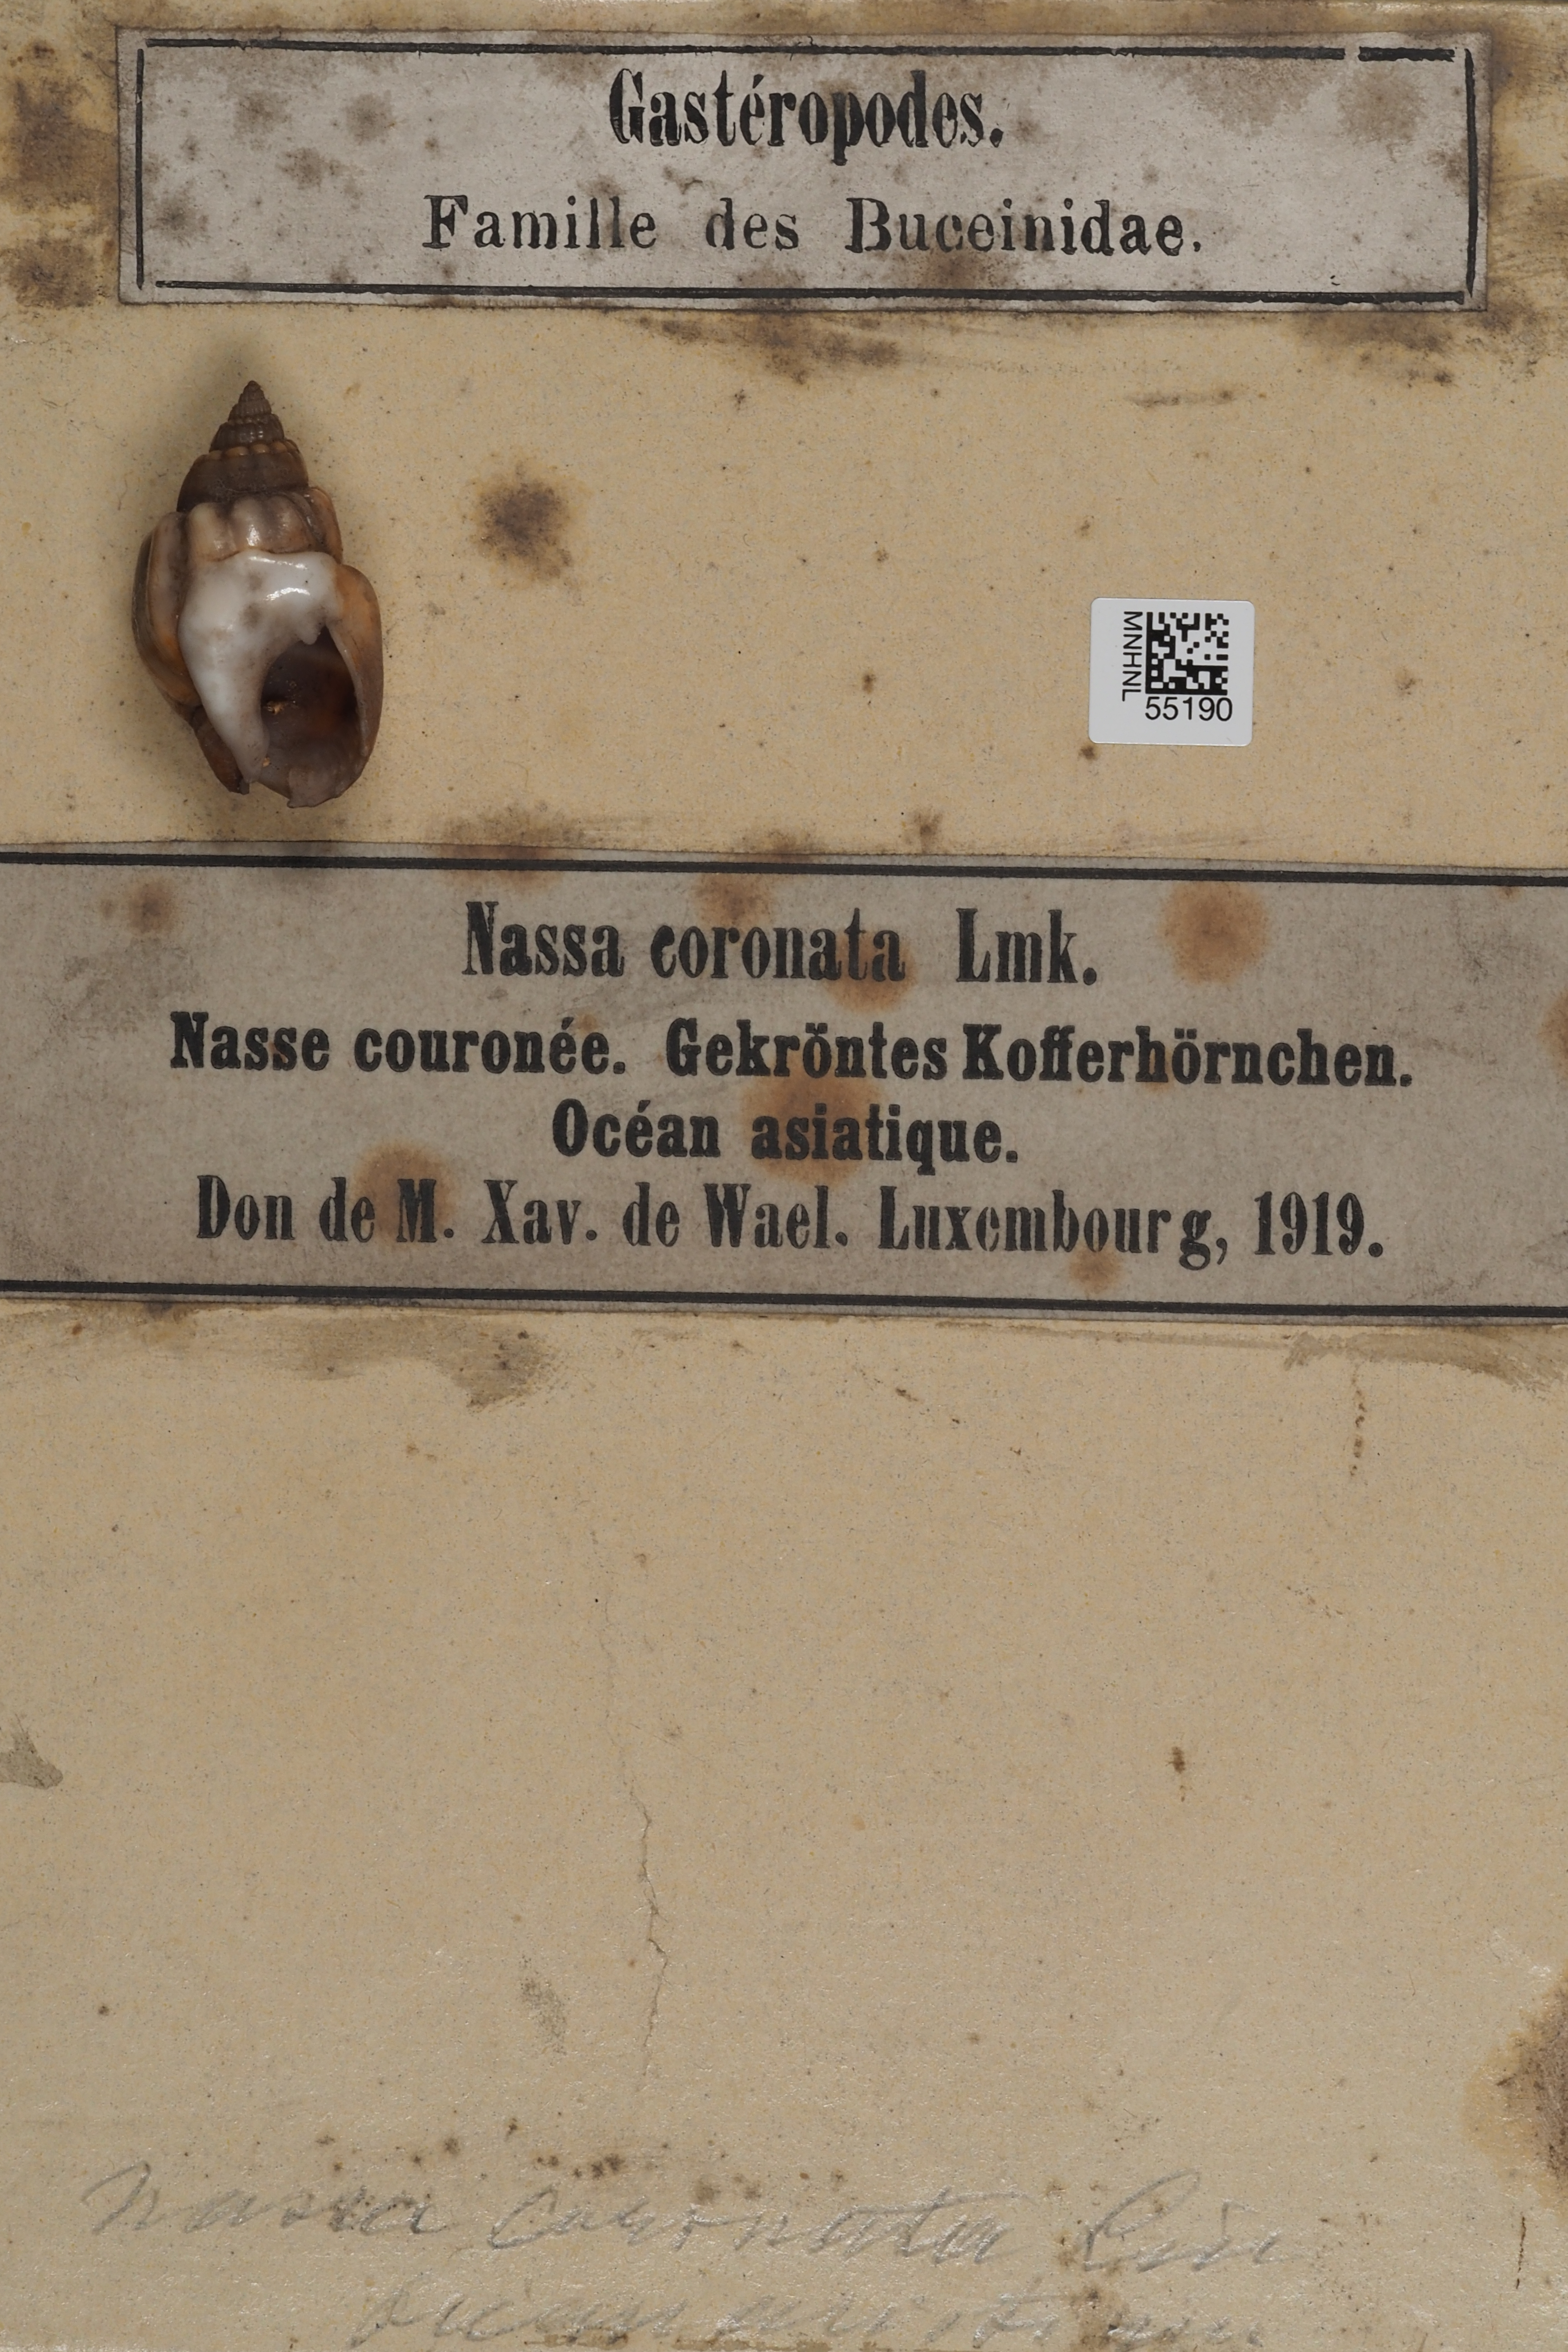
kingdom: Animalia
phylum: Mollusca
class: Gastropoda
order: Neogastropoda
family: Nassariidae
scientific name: Nassariidae
